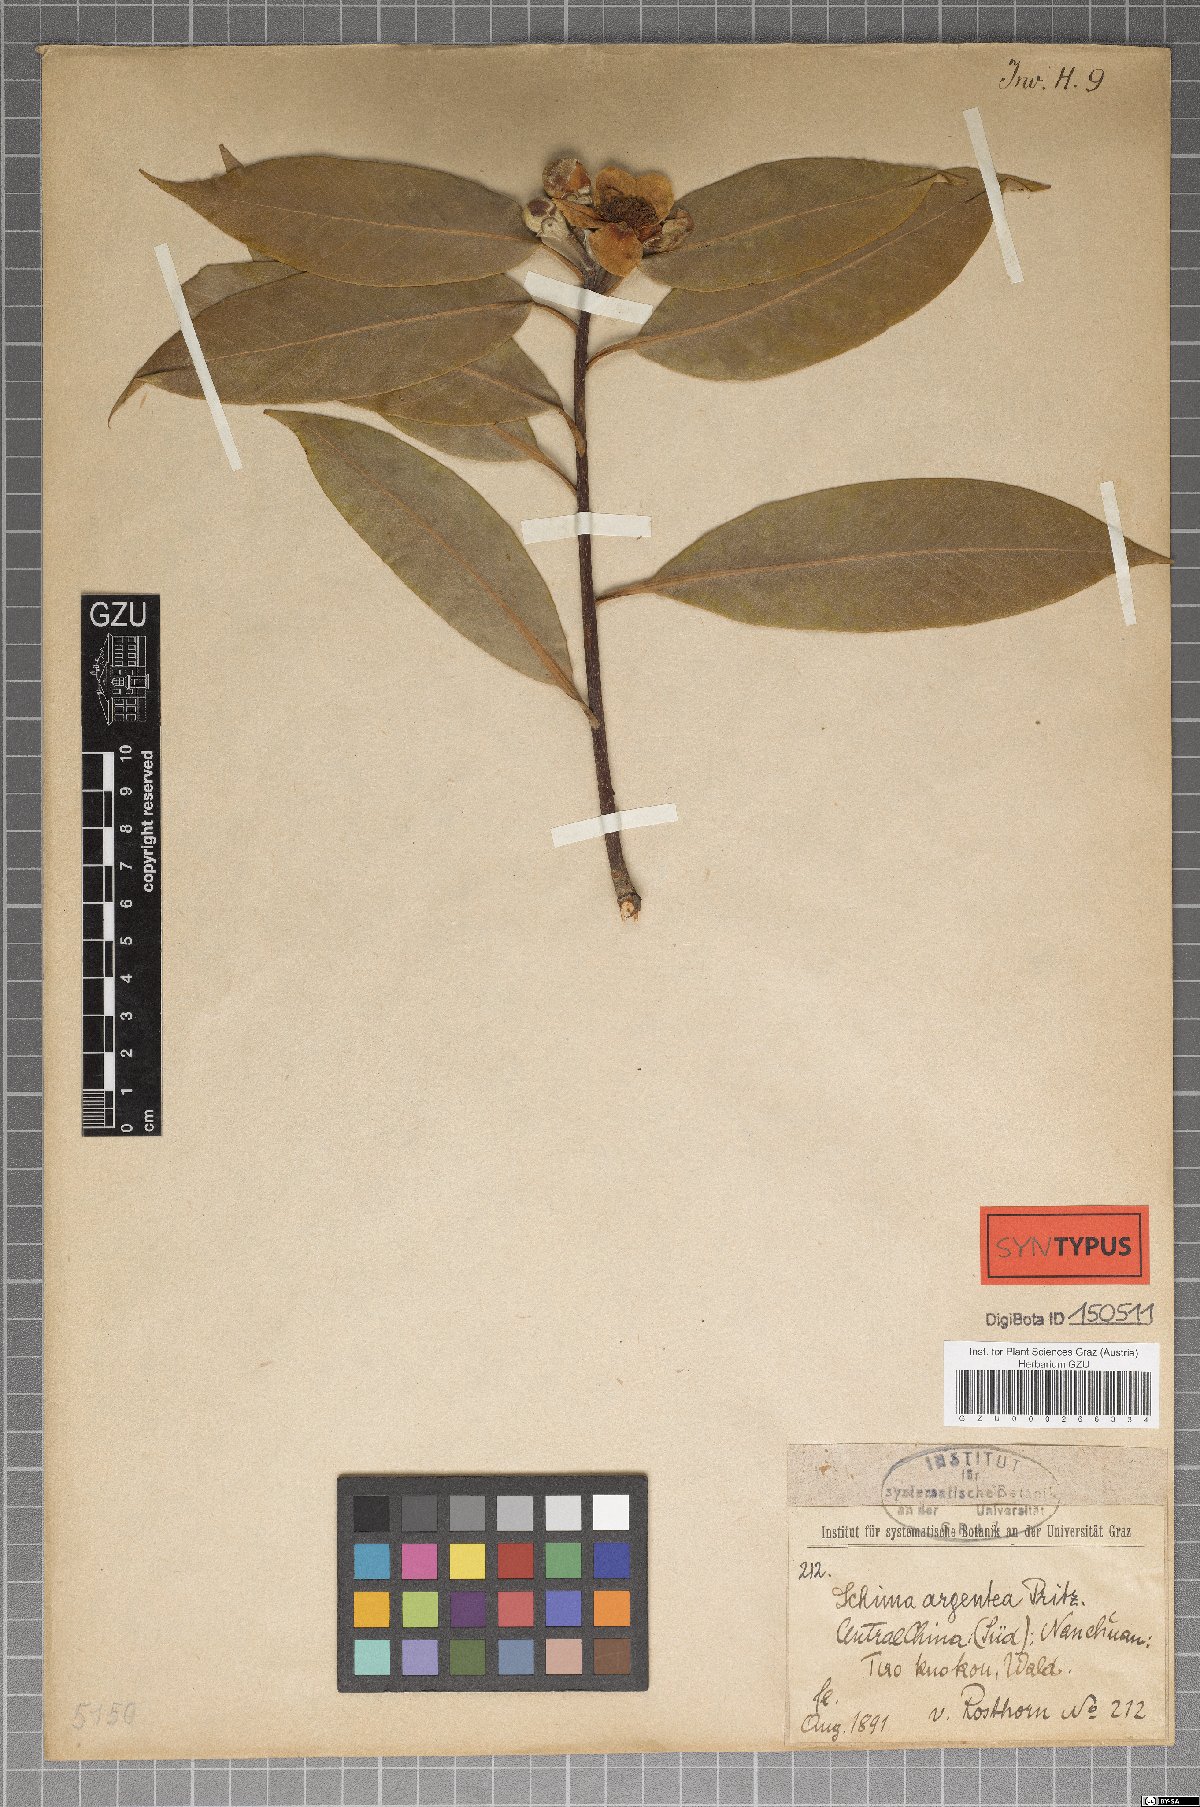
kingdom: Plantae
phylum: Tracheophyta
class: Magnoliopsida
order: Ericales
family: Theaceae
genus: Schima
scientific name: Schima argentea
